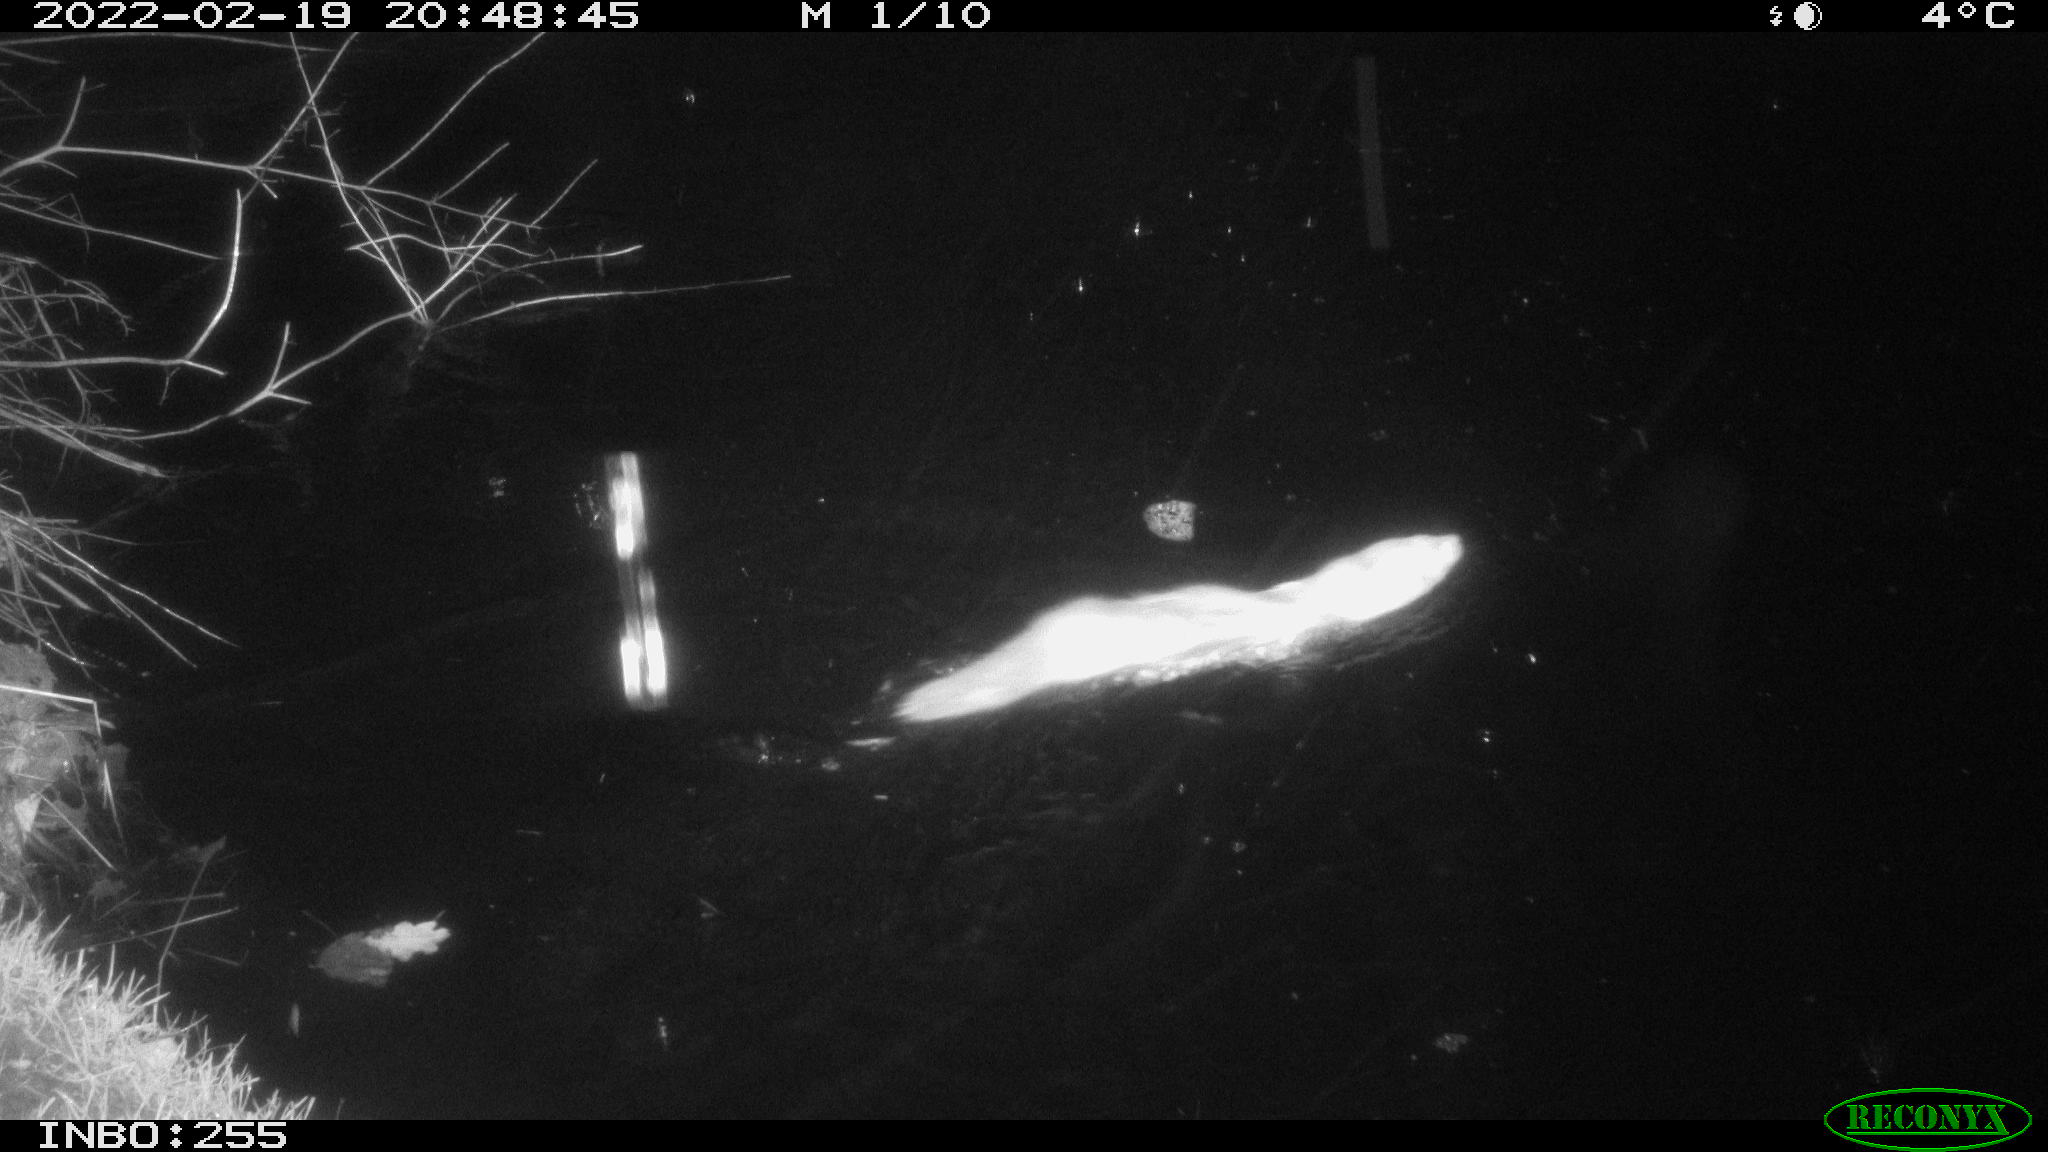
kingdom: Animalia
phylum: Chordata
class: Mammalia
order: Carnivora
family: Mustelidae
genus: Mustela
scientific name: Mustela putorius
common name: European polecat
